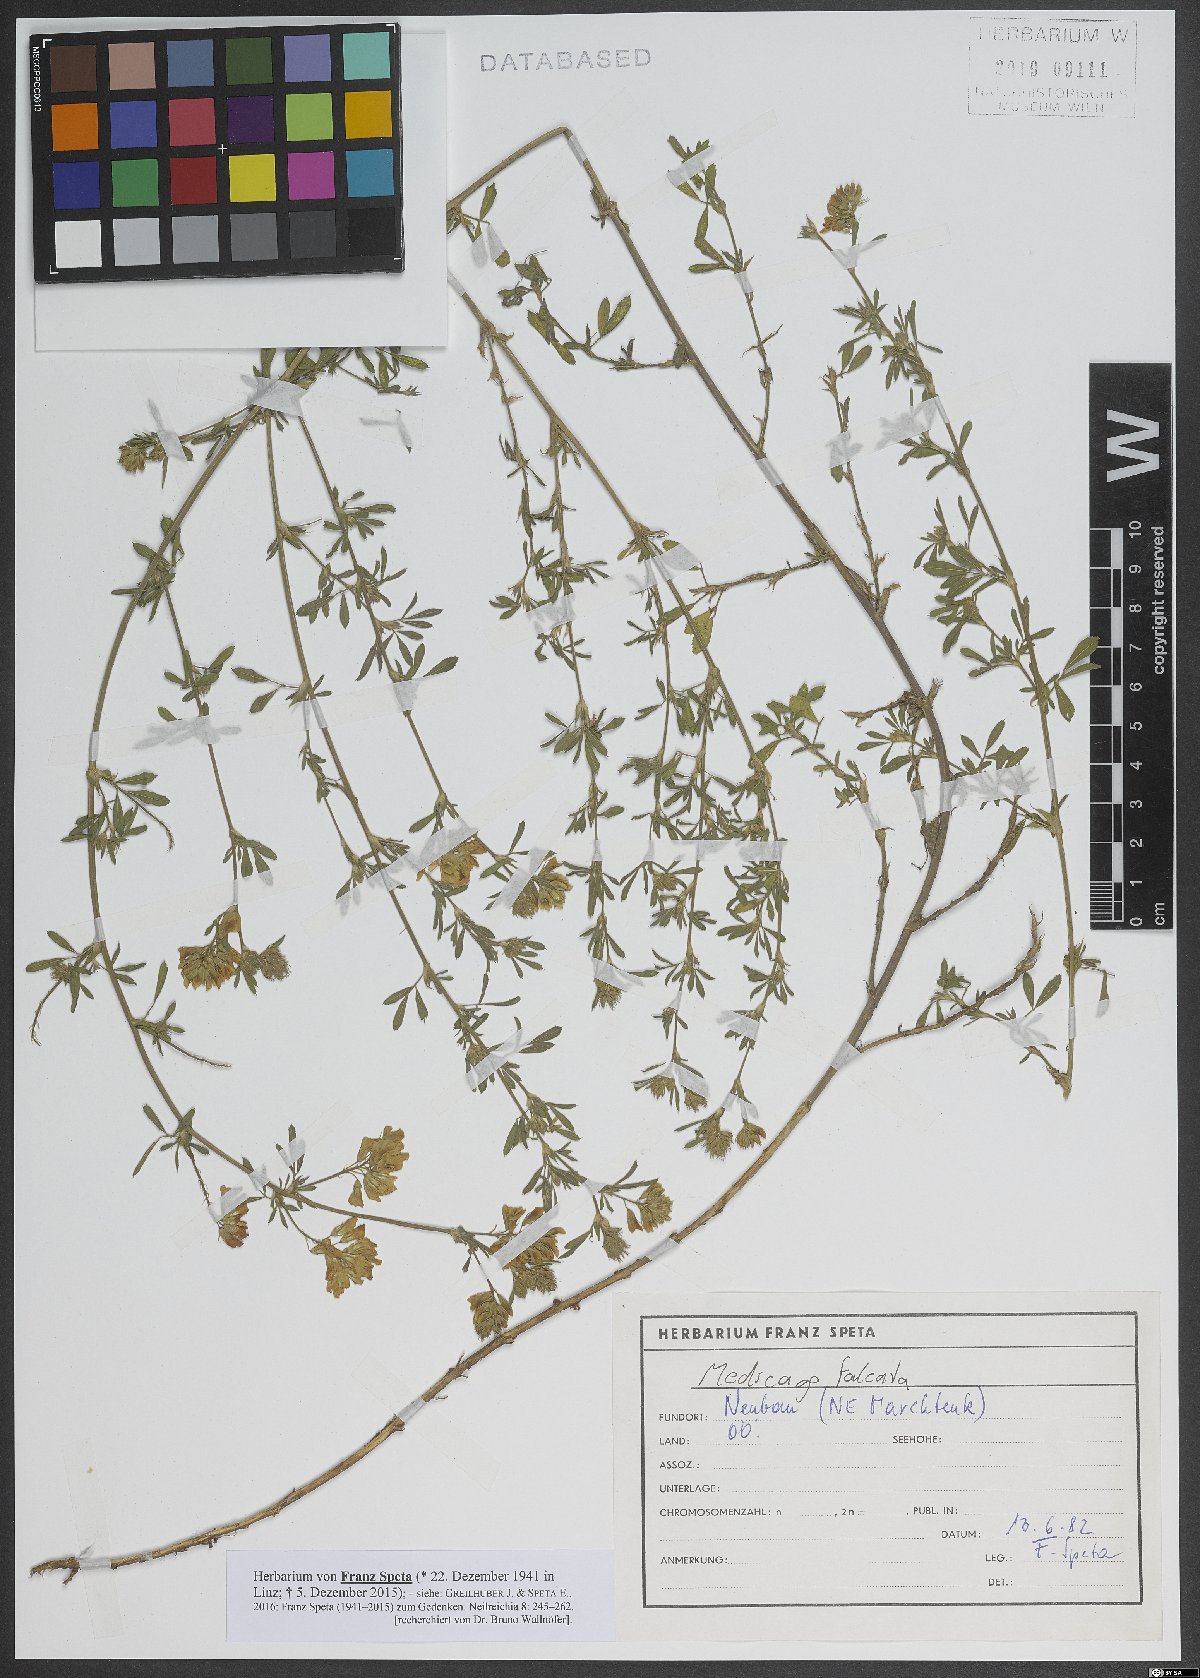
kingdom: Plantae
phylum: Tracheophyta
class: Magnoliopsida
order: Fabales
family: Fabaceae
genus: Medicago
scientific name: Medicago falcata
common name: Sickle medick
